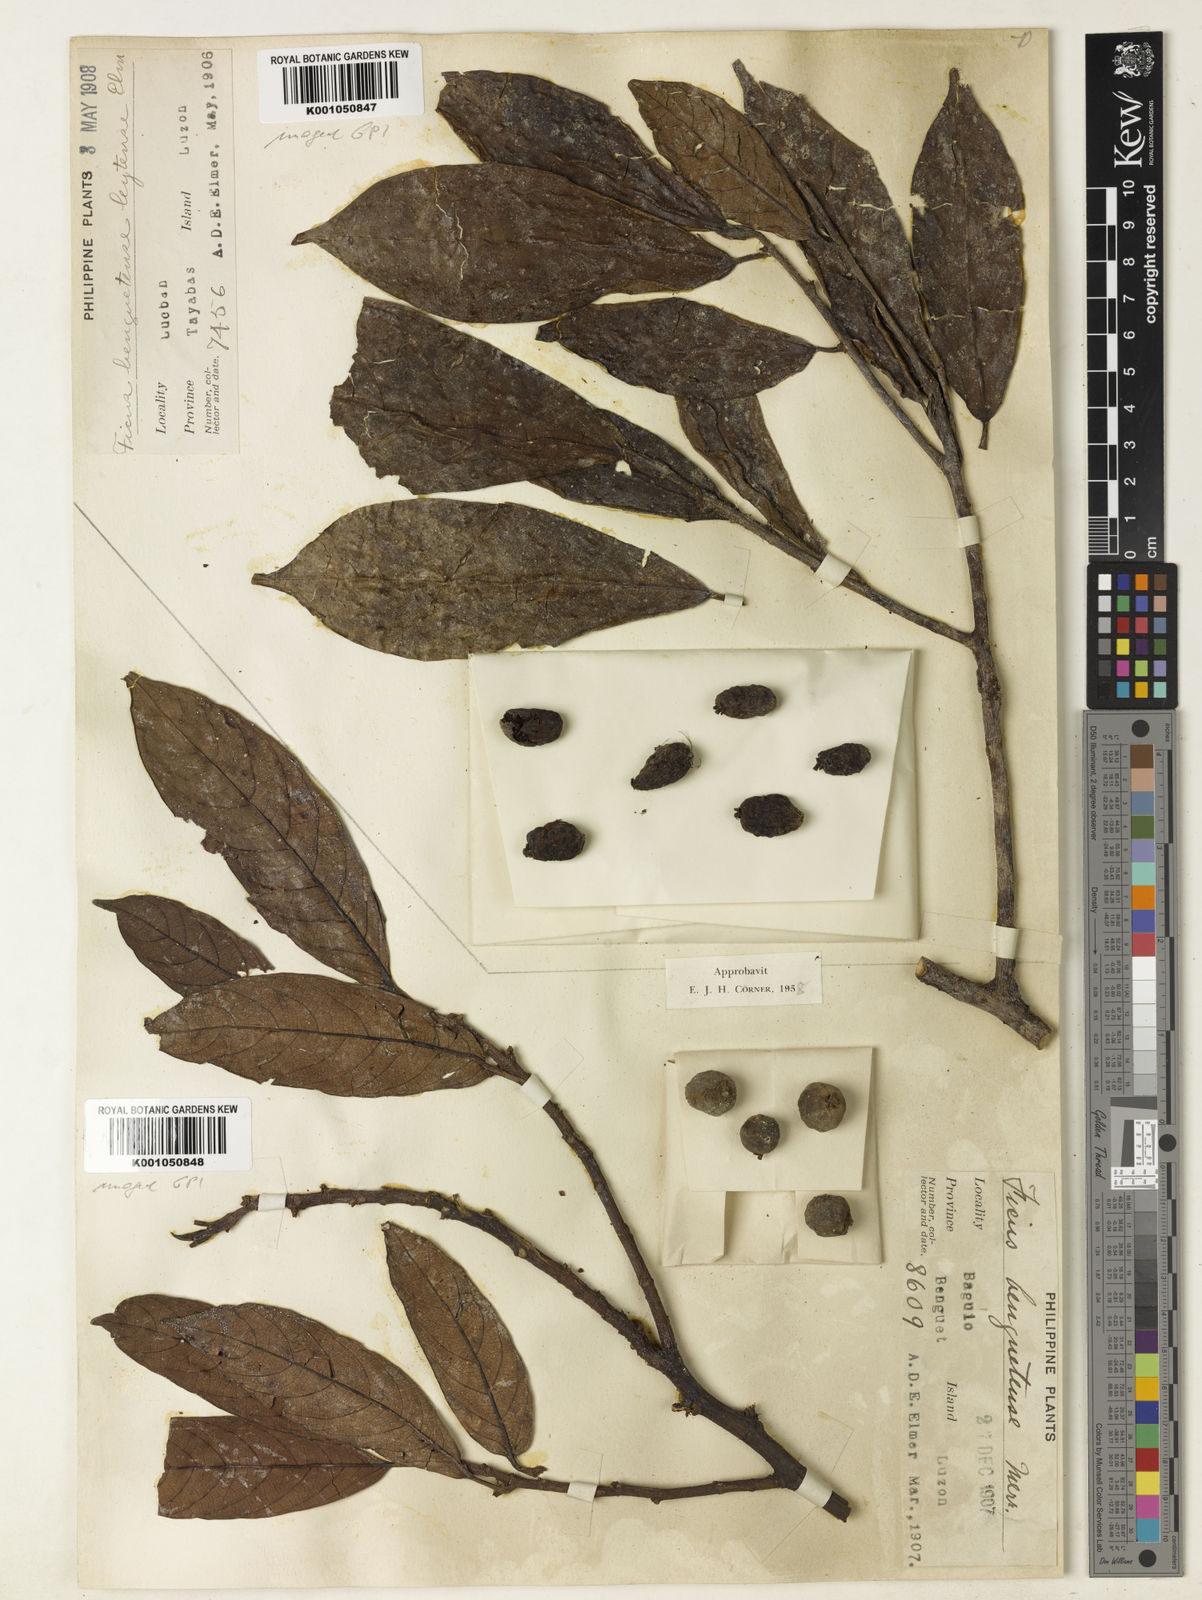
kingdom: Plantae
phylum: Tracheophyta
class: Magnoliopsida
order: Rosales
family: Moraceae
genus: Ficus
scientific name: Ficus benguetensis
